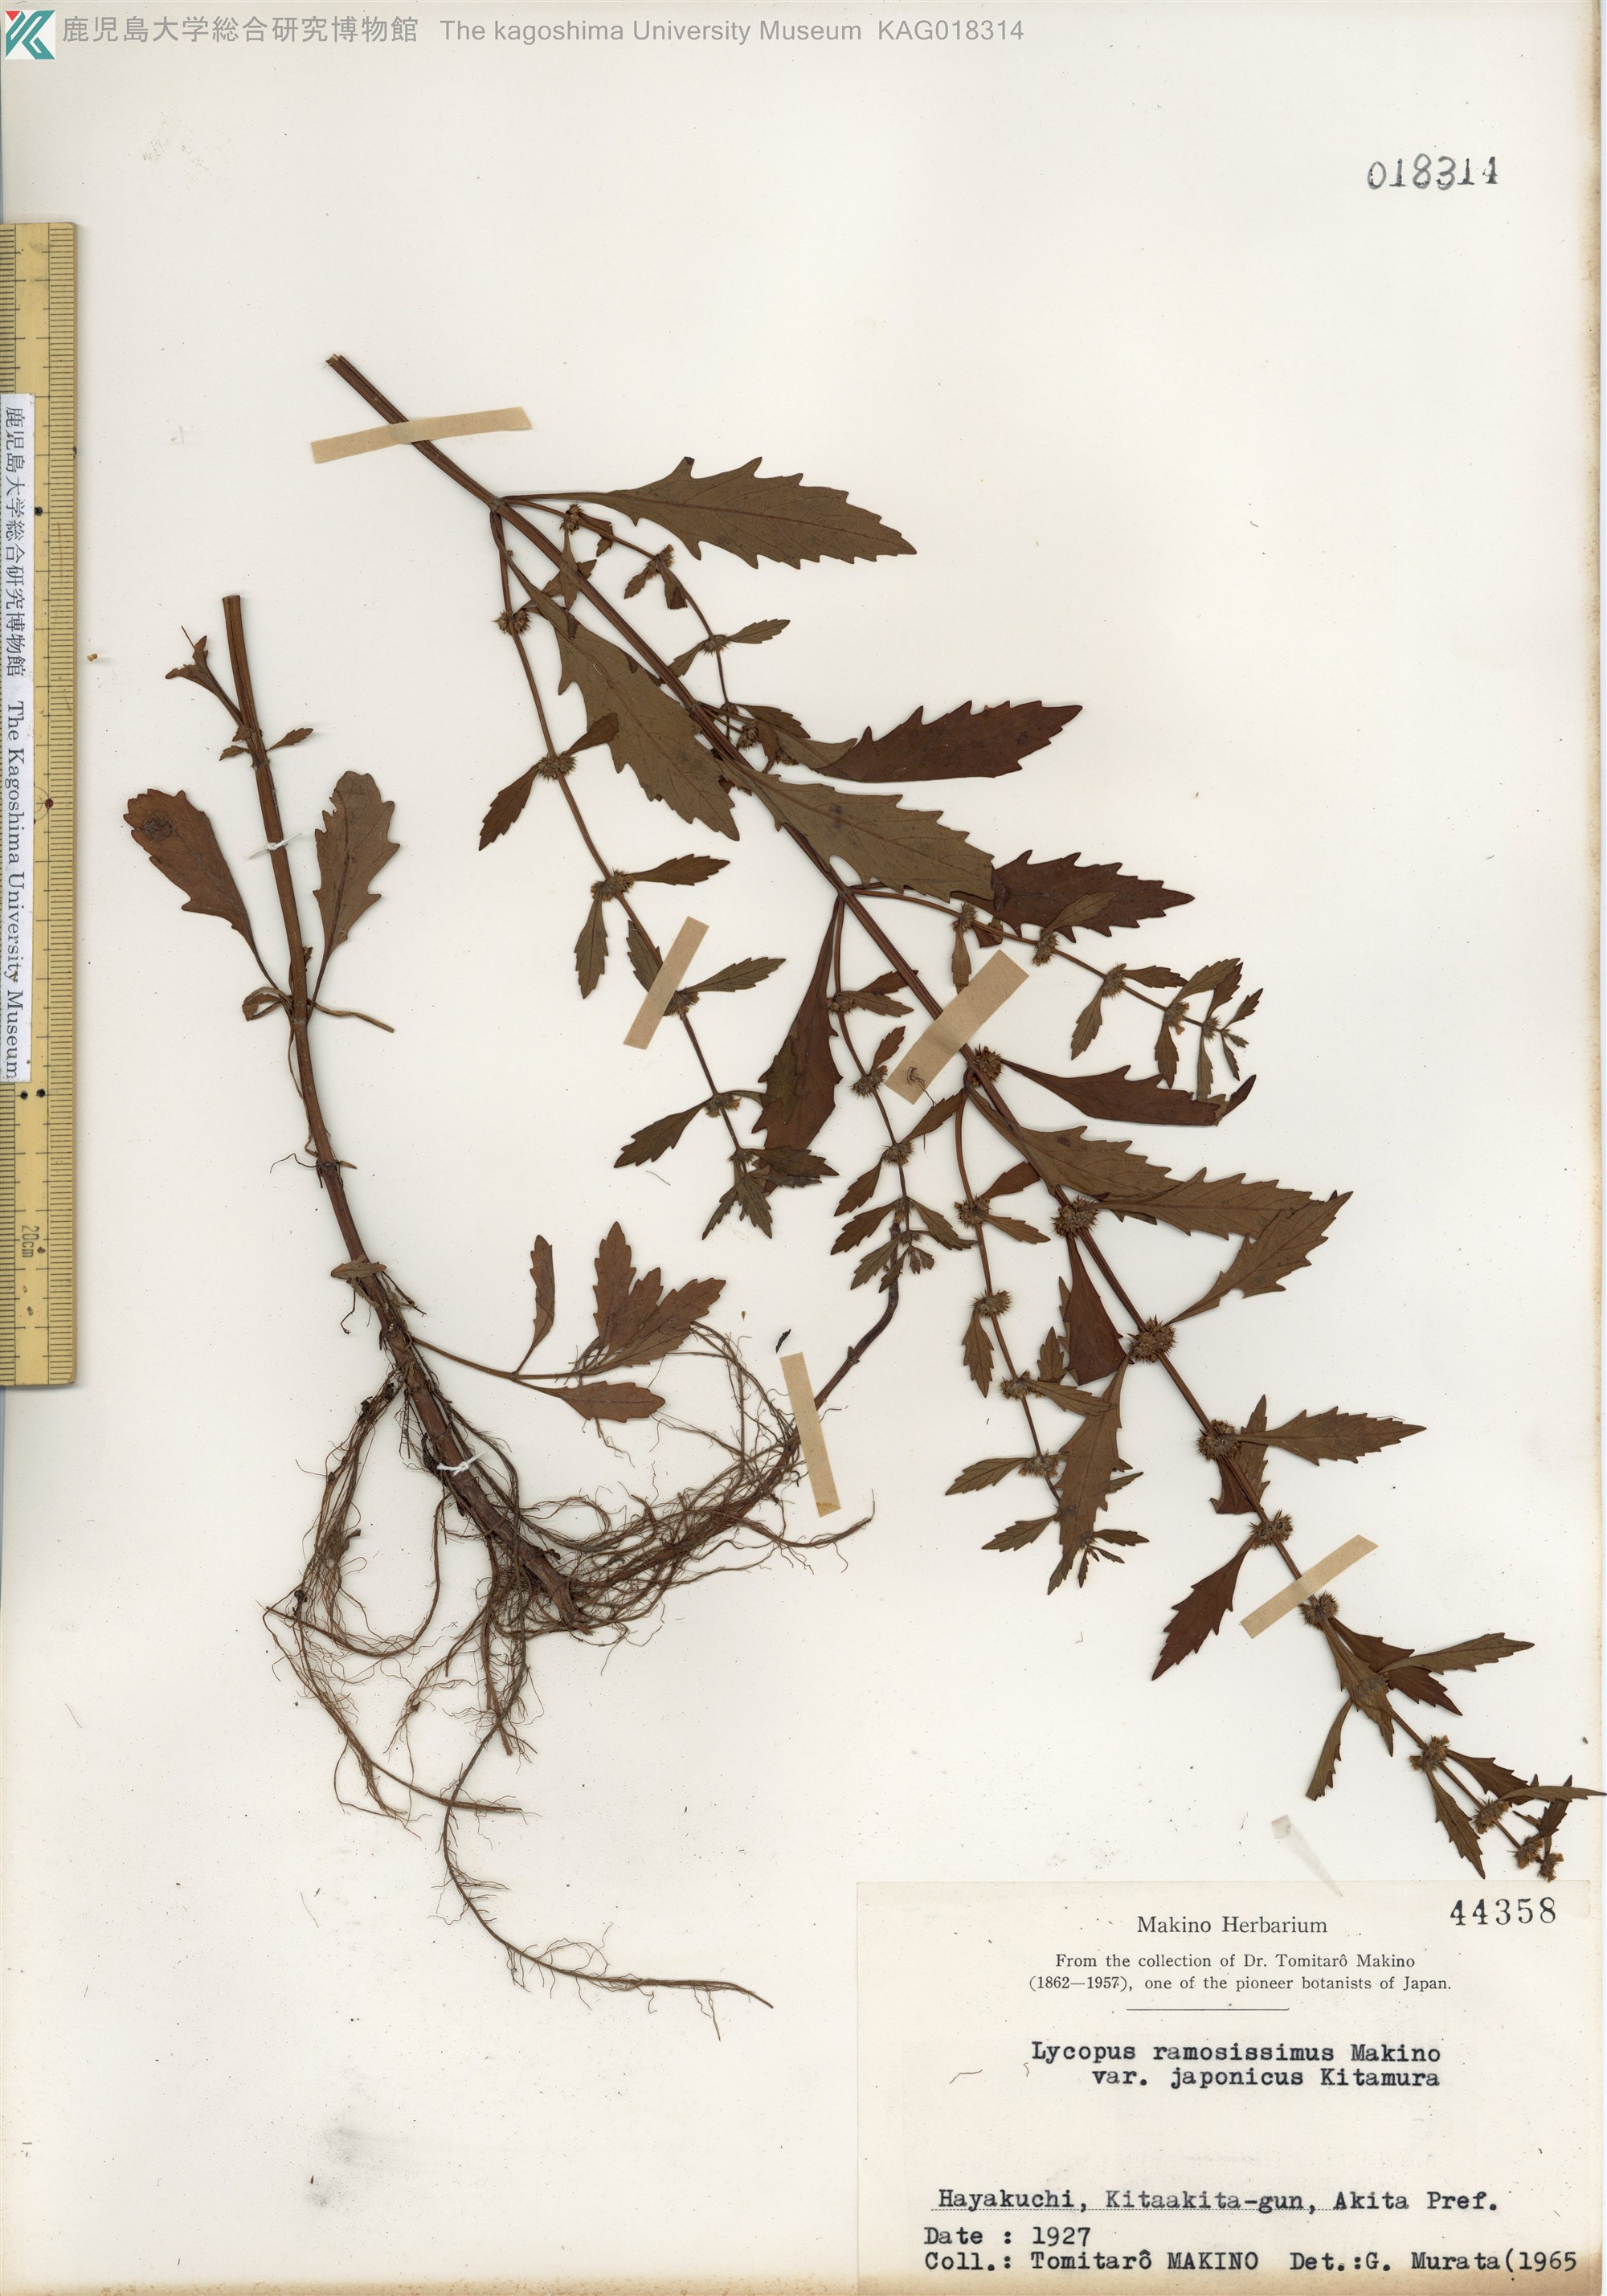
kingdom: Plantae
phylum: Tracheophyta
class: Magnoliopsida
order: Lamiales
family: Lamiaceae
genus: Lycopus
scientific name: Lycopus cavaleriei
